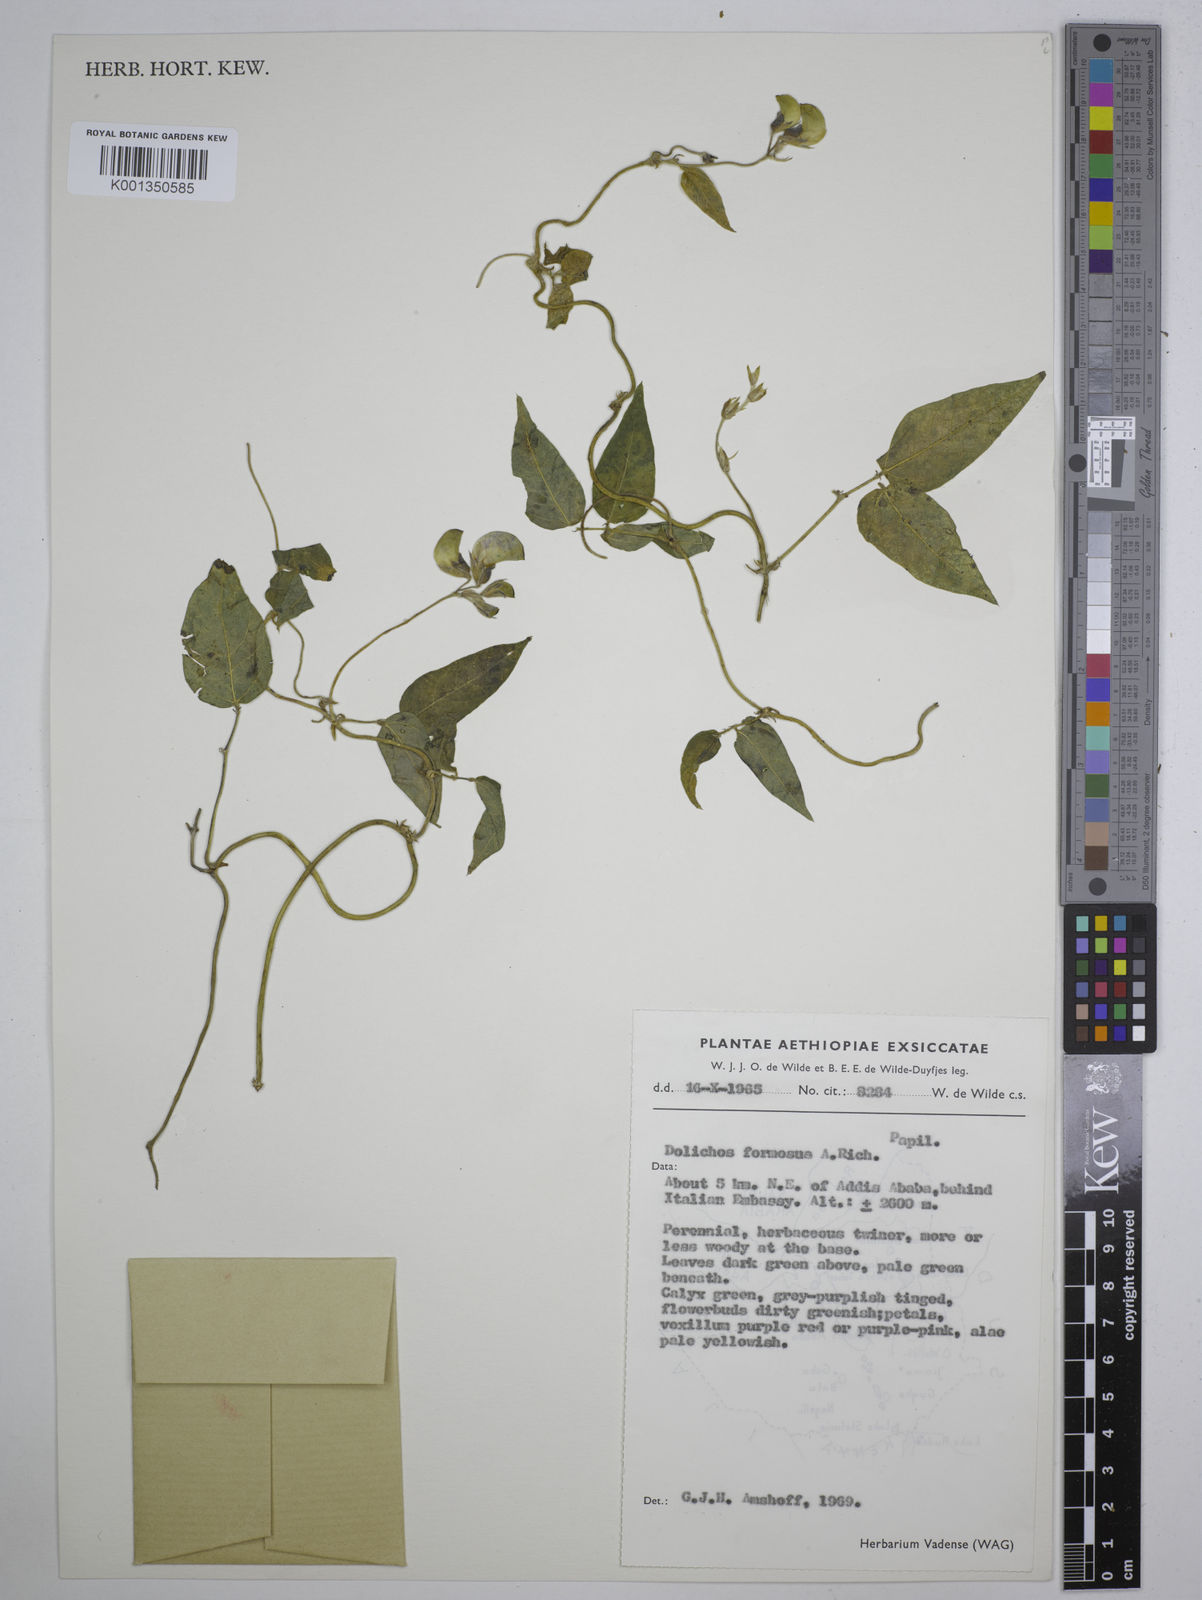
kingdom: Plantae
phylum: Tracheophyta
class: Magnoliopsida
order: Fabales
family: Fabaceae
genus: Dolichos
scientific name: Dolichos
